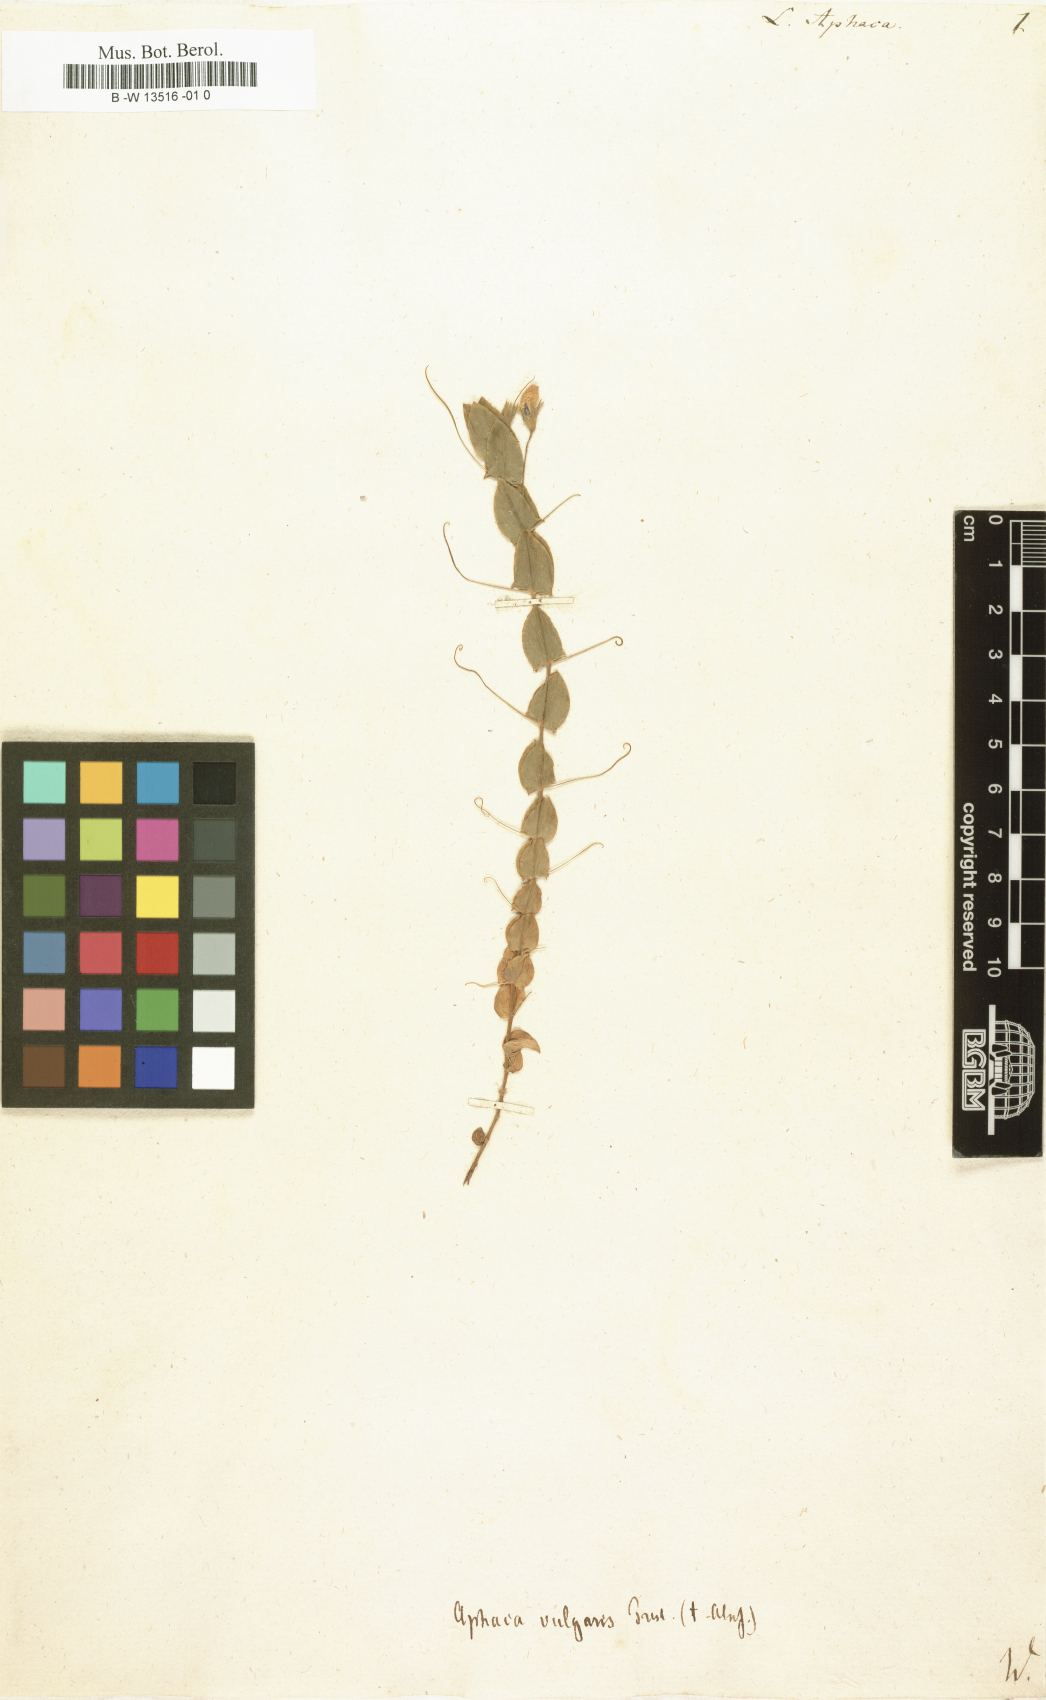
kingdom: Plantae
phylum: Tracheophyta
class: Magnoliopsida
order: Fabales
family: Fabaceae
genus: Lathyrus
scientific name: Lathyrus aphaca
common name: Yellow vetchling
